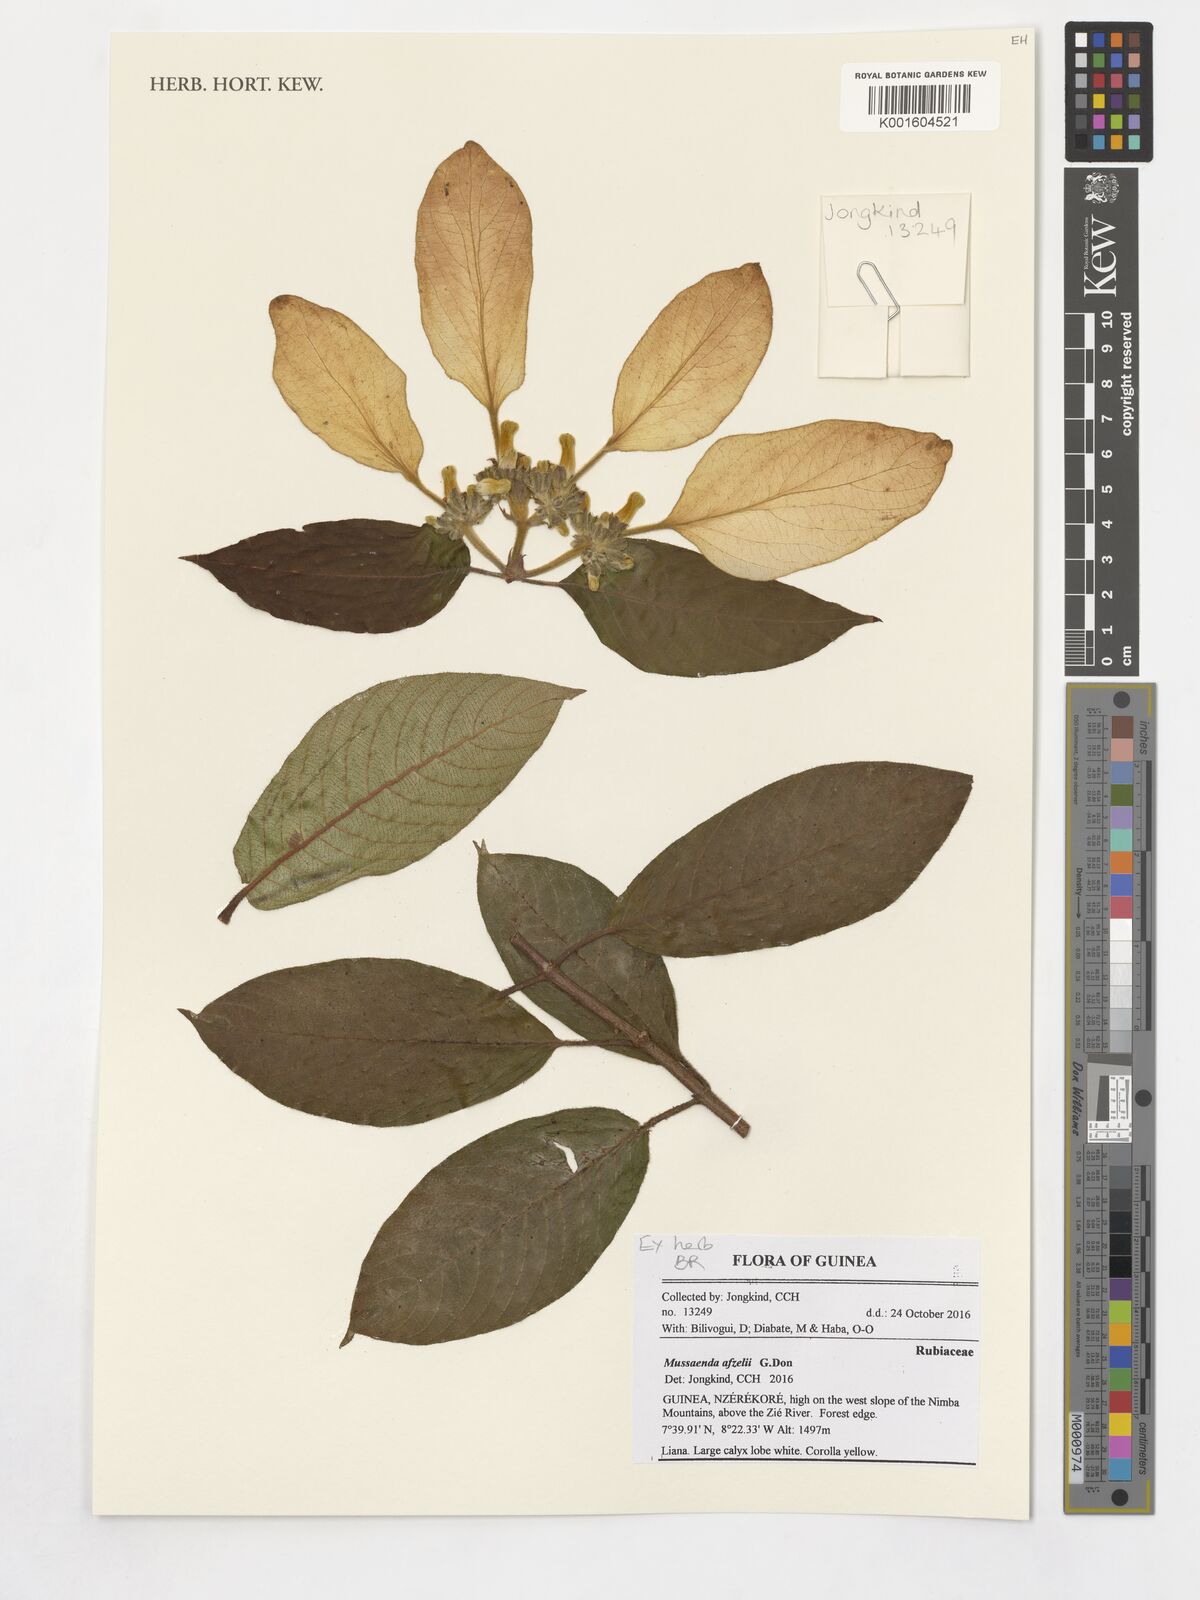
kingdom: Plantae
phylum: Tracheophyta
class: Magnoliopsida
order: Gentianales
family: Rubiaceae
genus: Mussaenda
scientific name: Mussaenda afzelii
